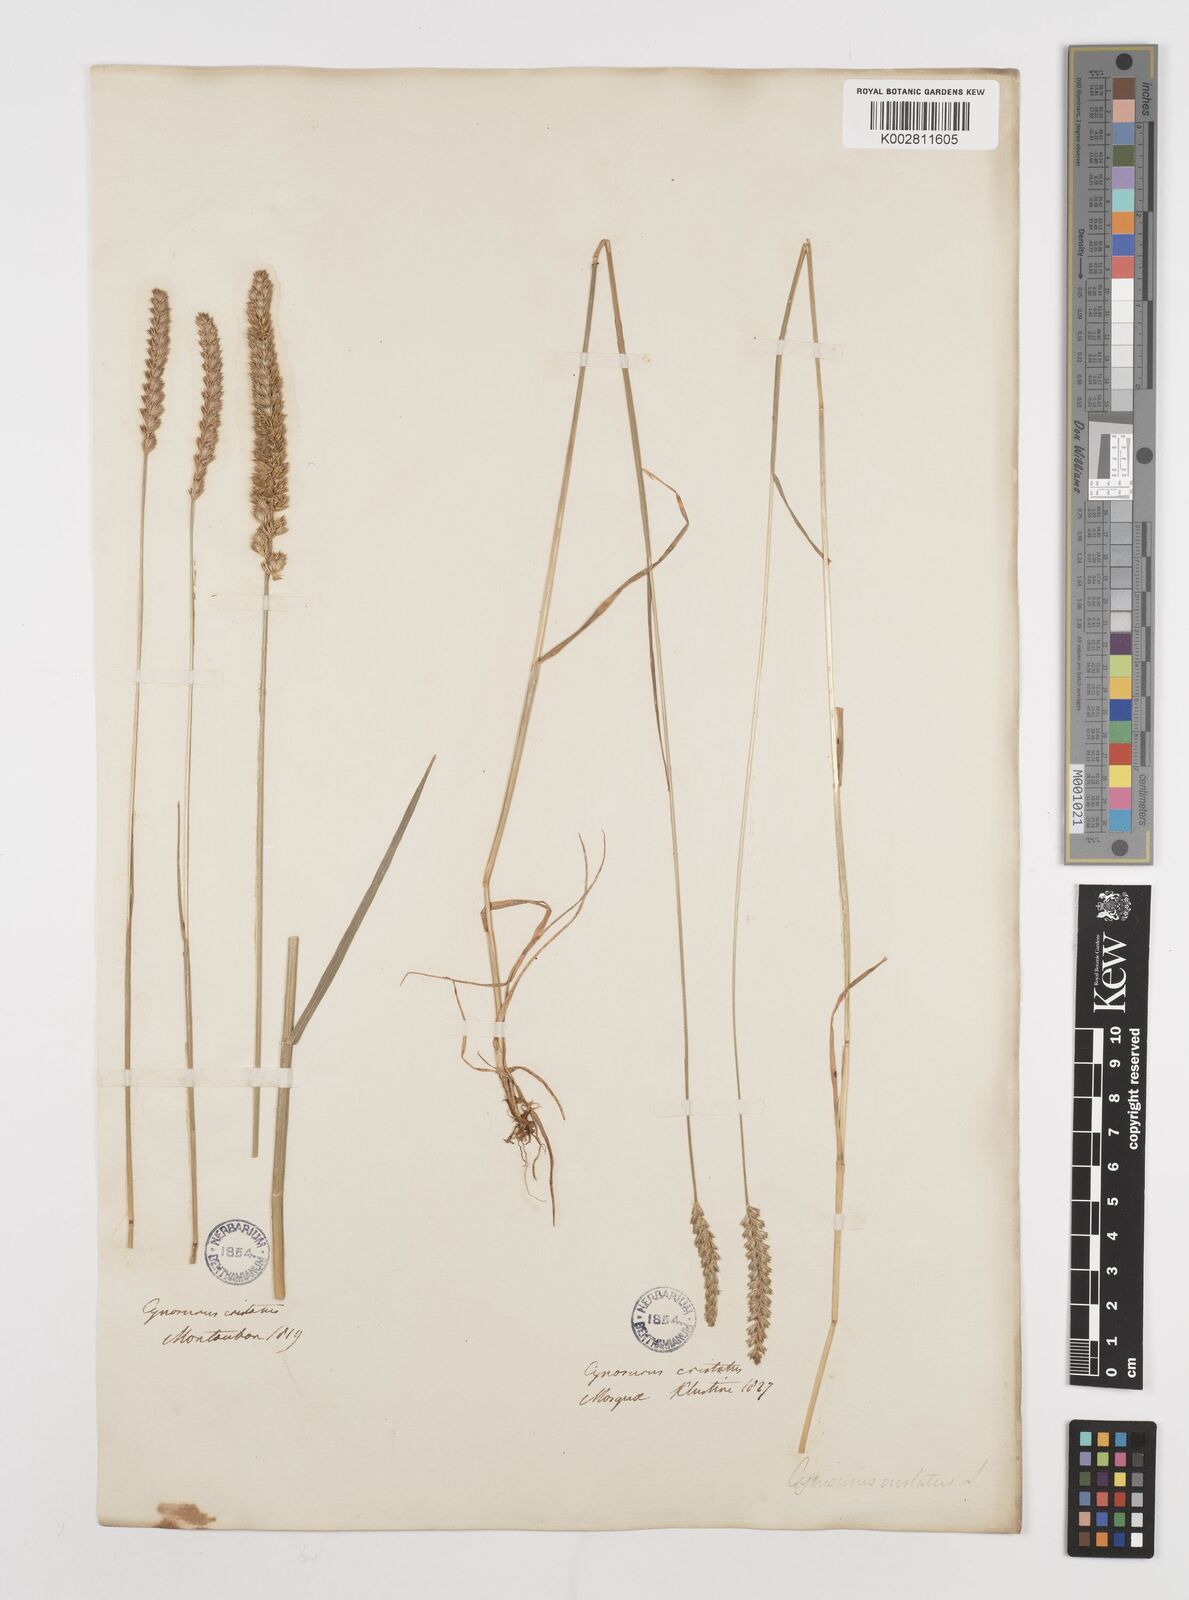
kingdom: Plantae
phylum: Tracheophyta
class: Liliopsida
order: Poales
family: Poaceae
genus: Cynosurus
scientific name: Cynosurus cristatus
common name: Crested dog's-tail
